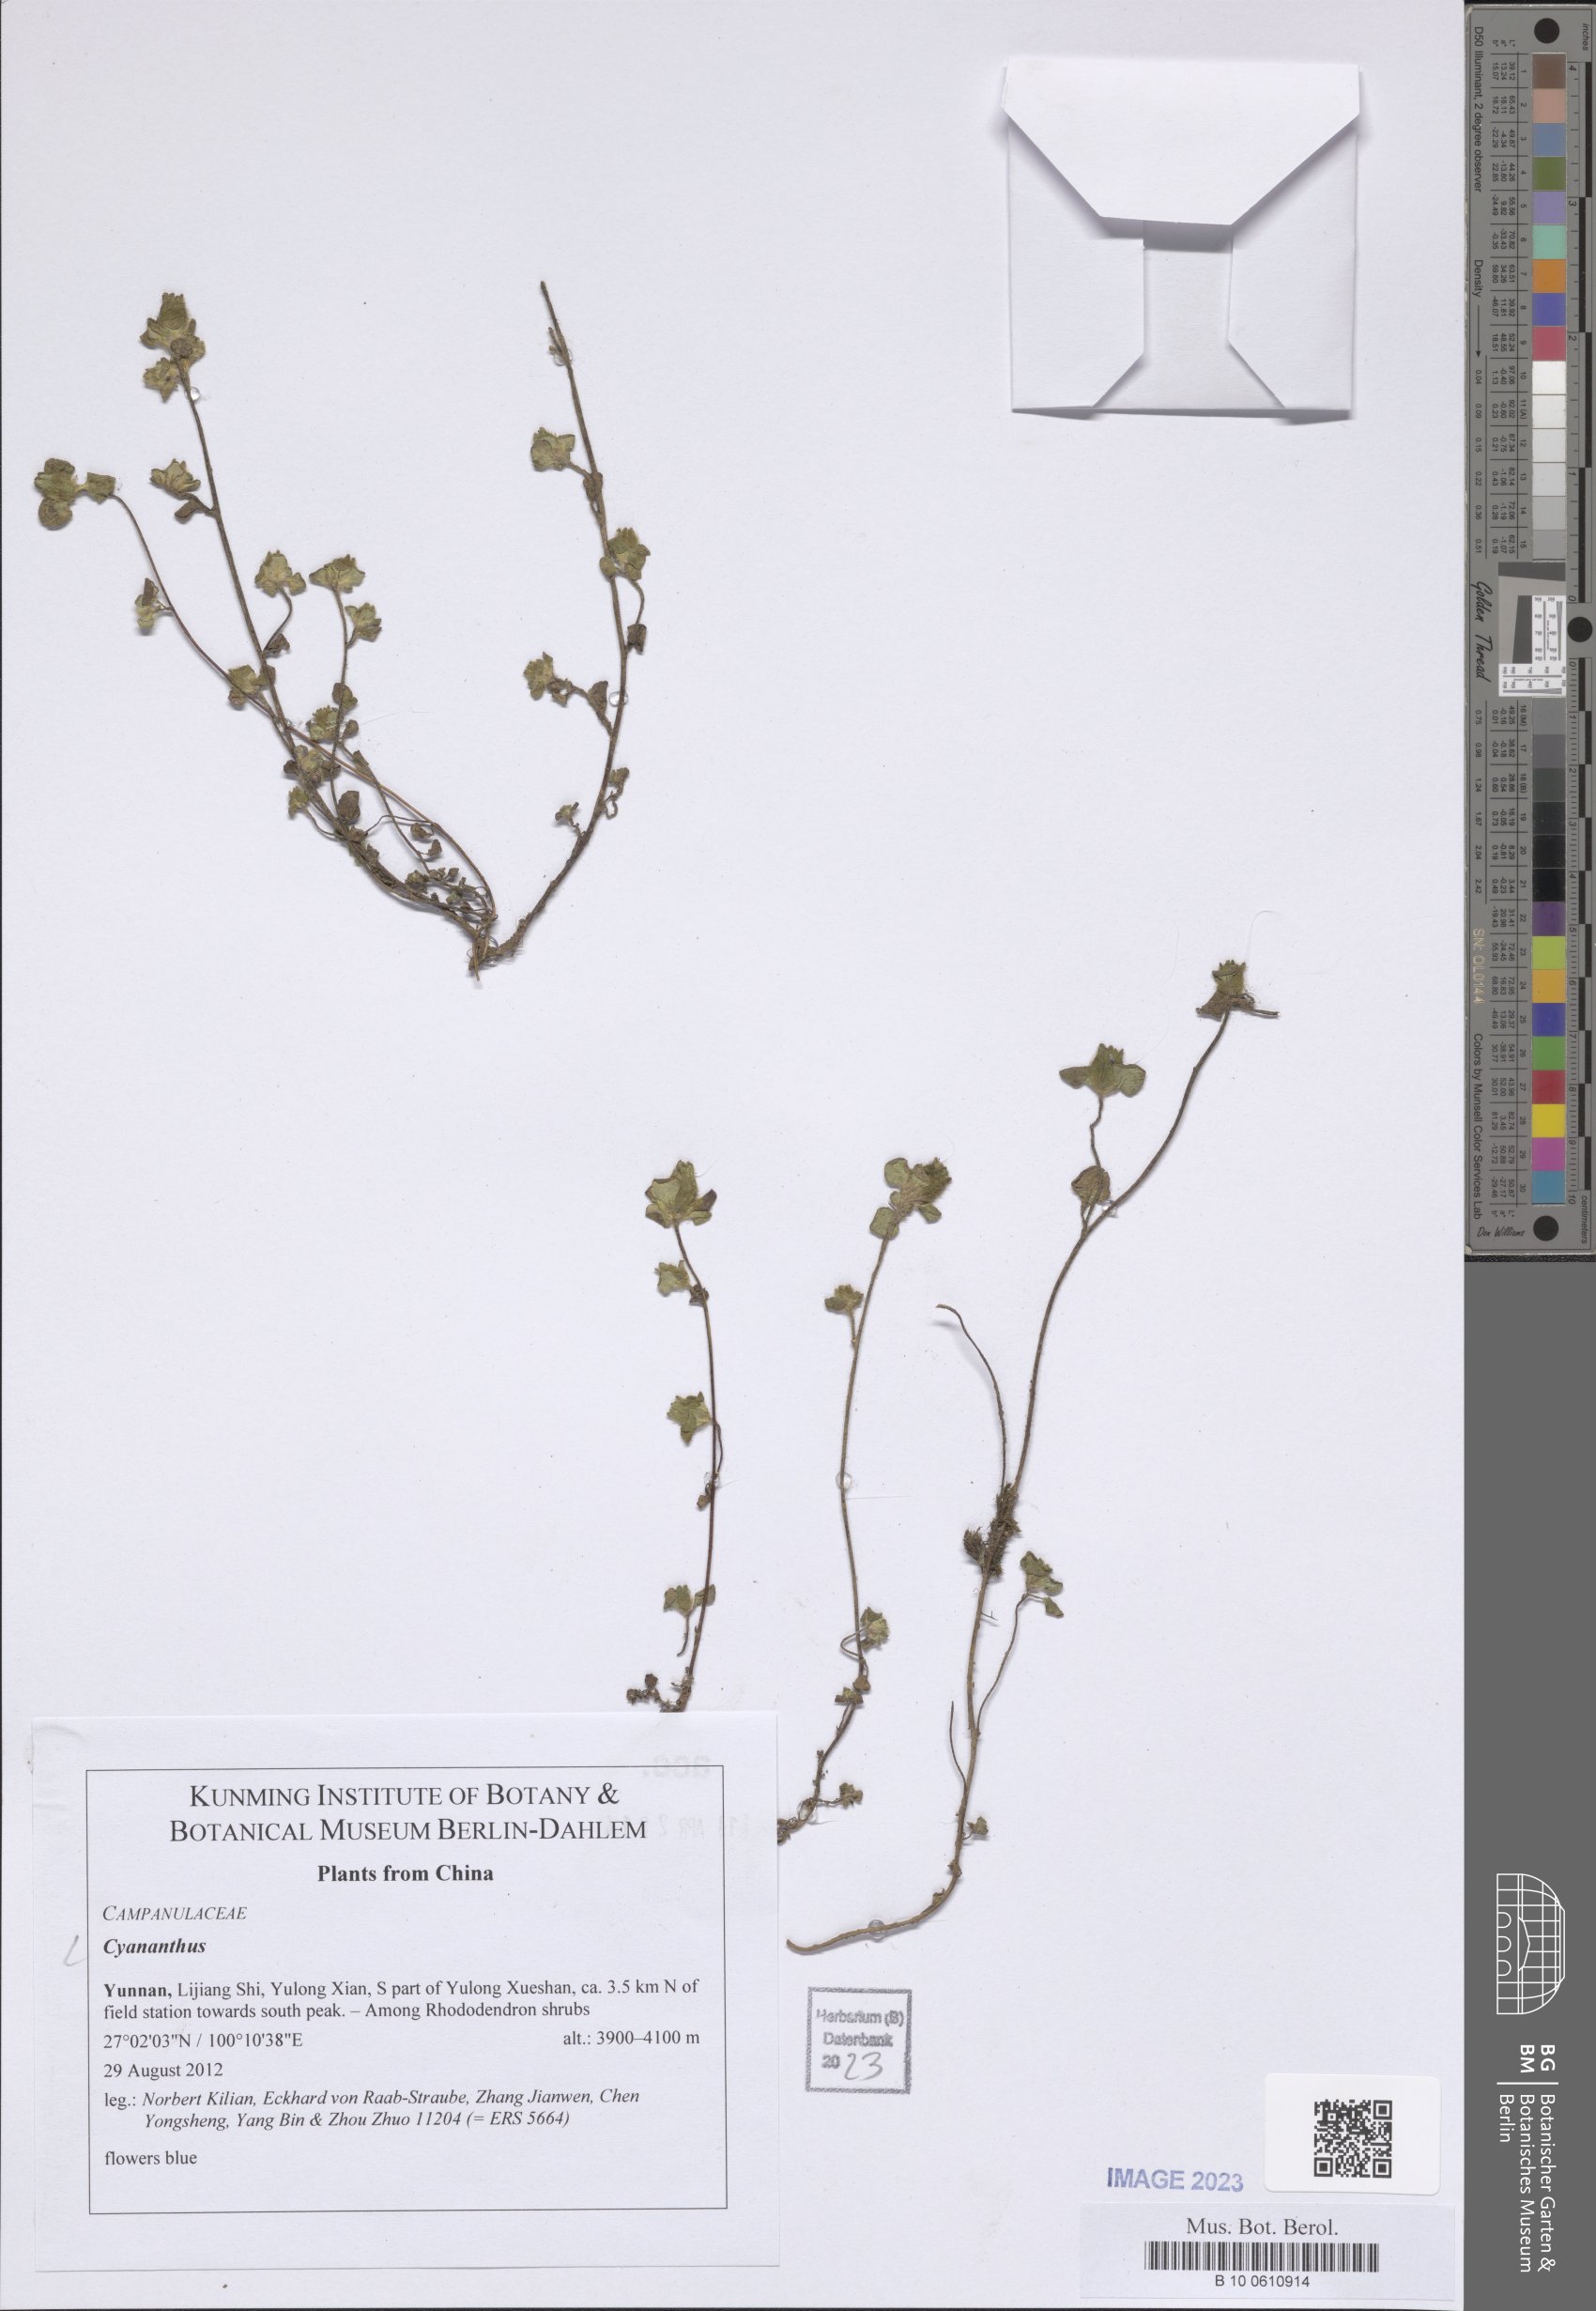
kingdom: Plantae
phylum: Tracheophyta
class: Magnoliopsida
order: Asterales
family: Campanulaceae
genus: Cyananthus
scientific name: Cyananthus
